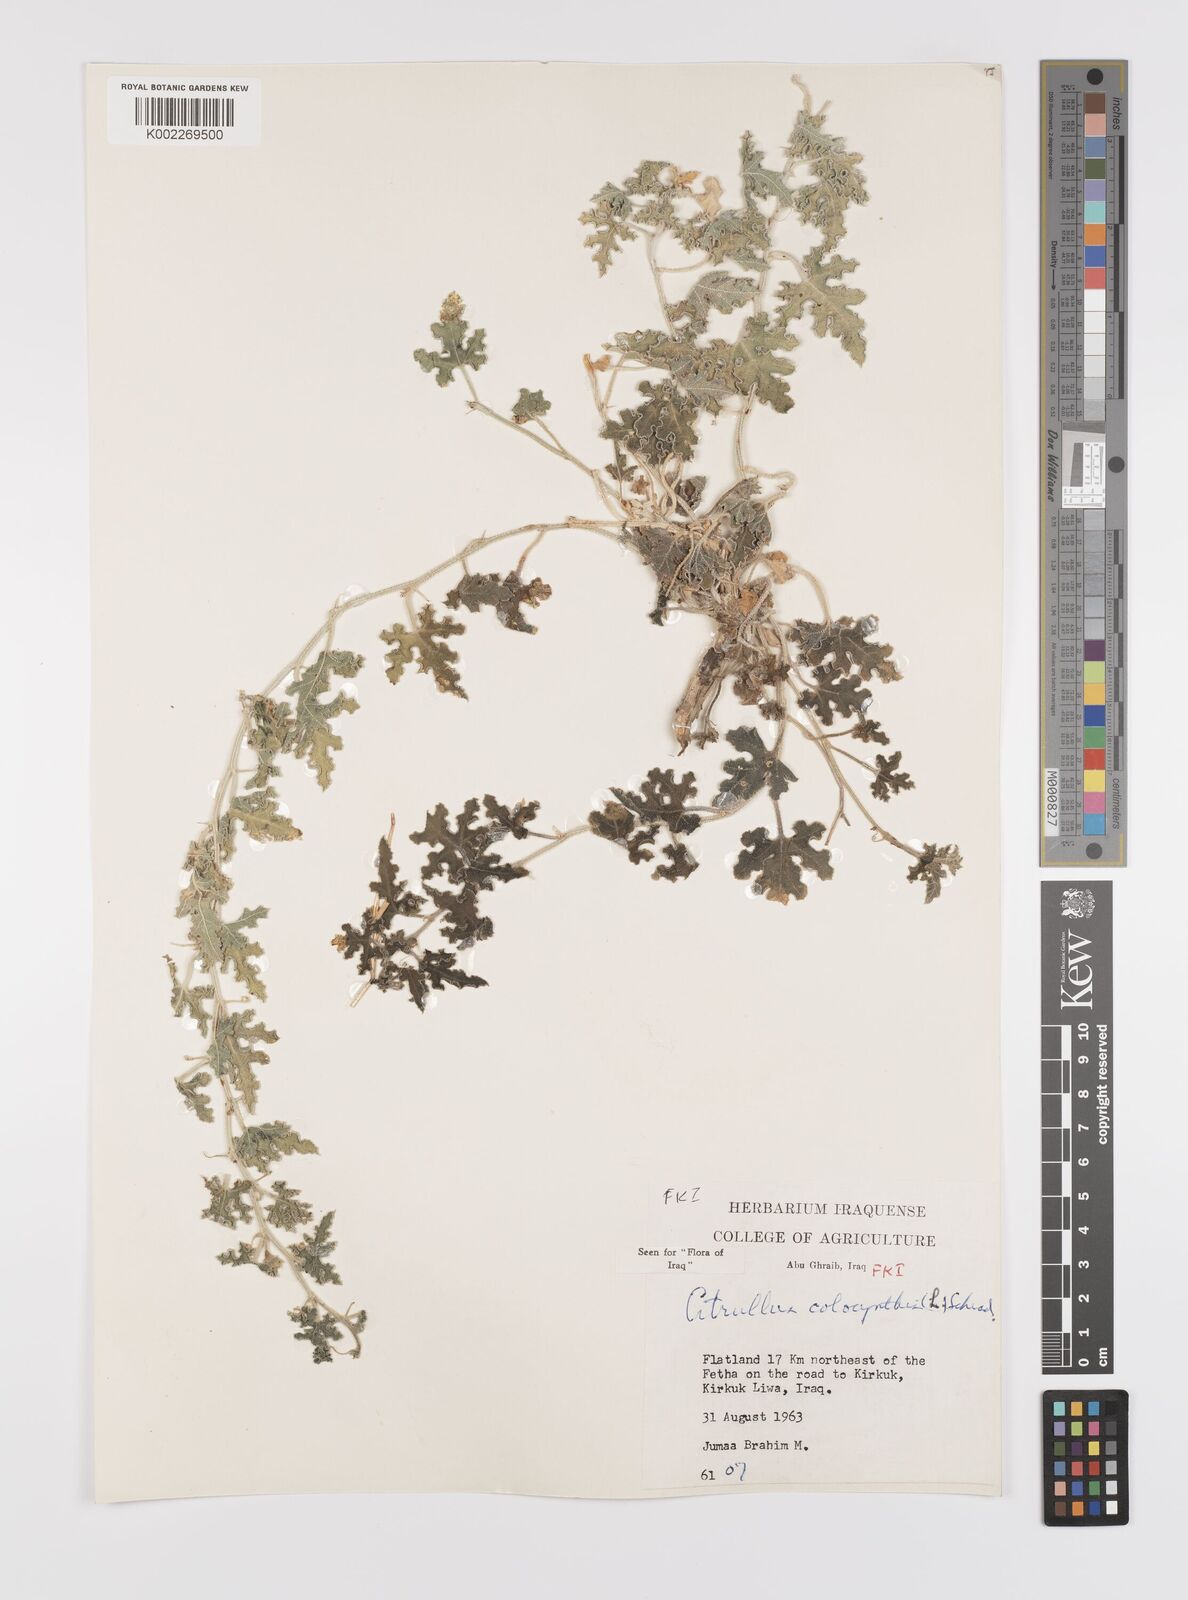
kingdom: Plantae
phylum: Tracheophyta
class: Magnoliopsida
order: Cucurbitales
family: Cucurbitaceae
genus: Citrullus
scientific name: Citrullus colocynthis
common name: Colocynth
